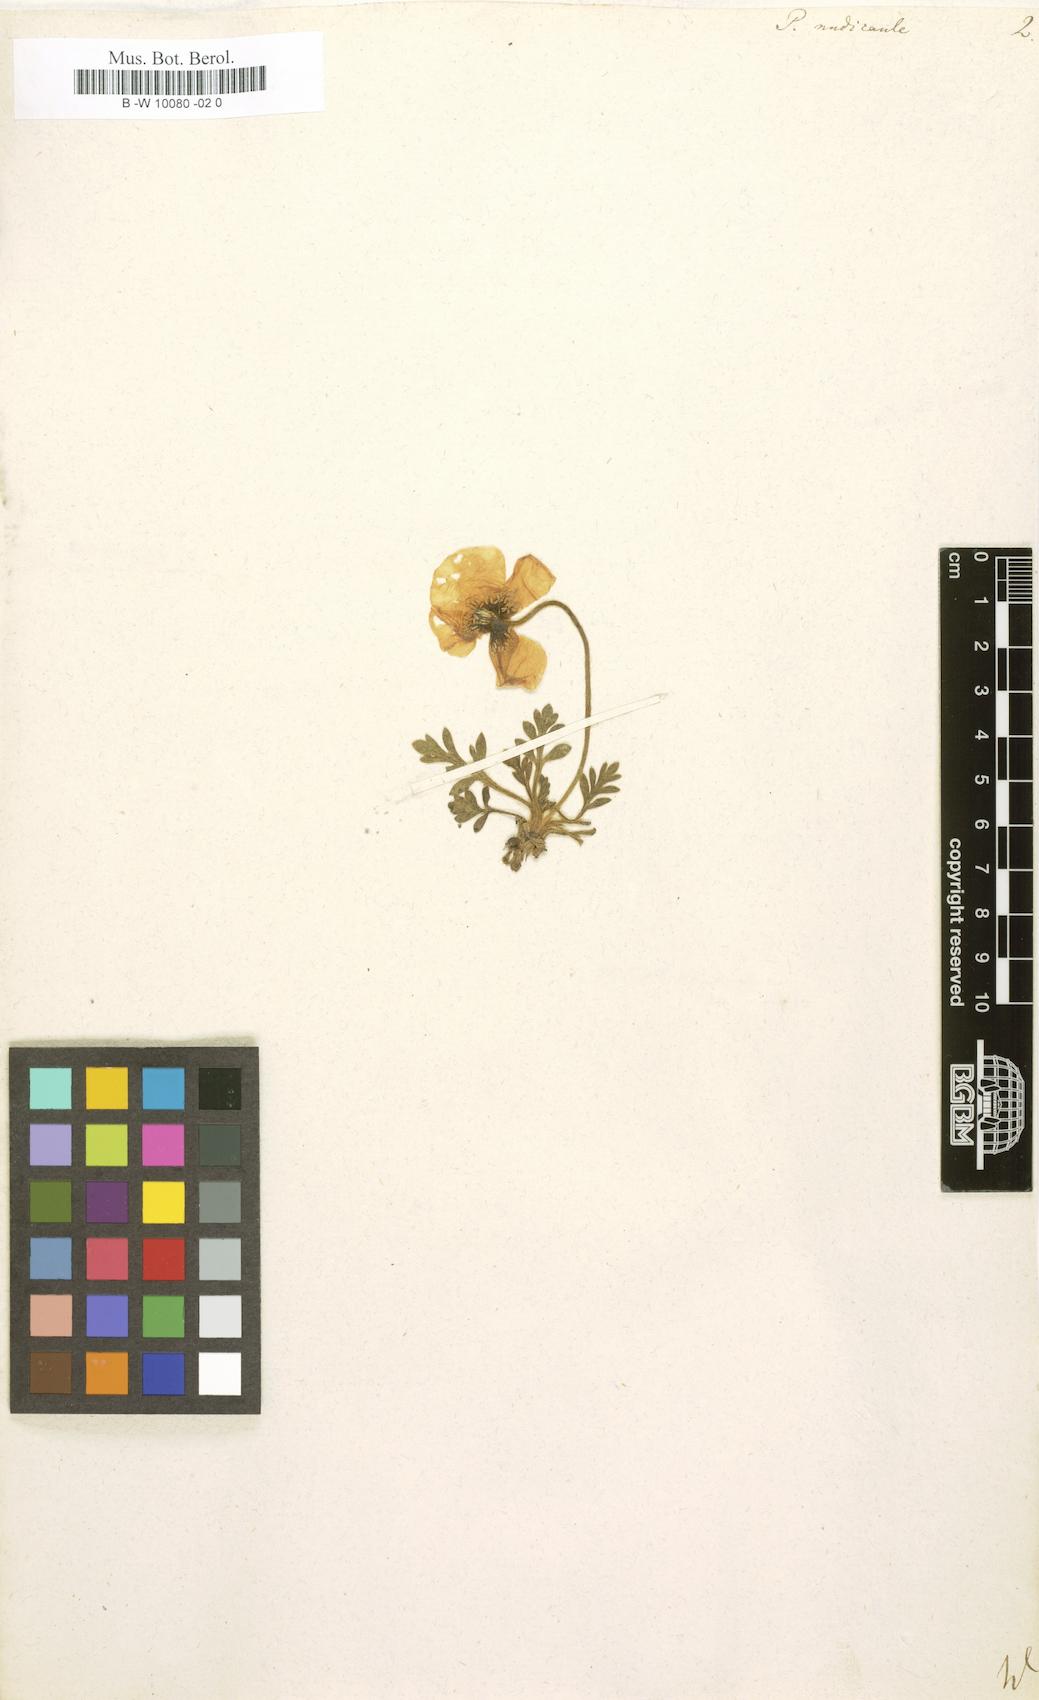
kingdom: Plantae
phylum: Tracheophyta
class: Magnoliopsida
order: Ranunculales
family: Papaveraceae
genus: Papaver
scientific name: Papaver nudicaule
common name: Arctic poppy
